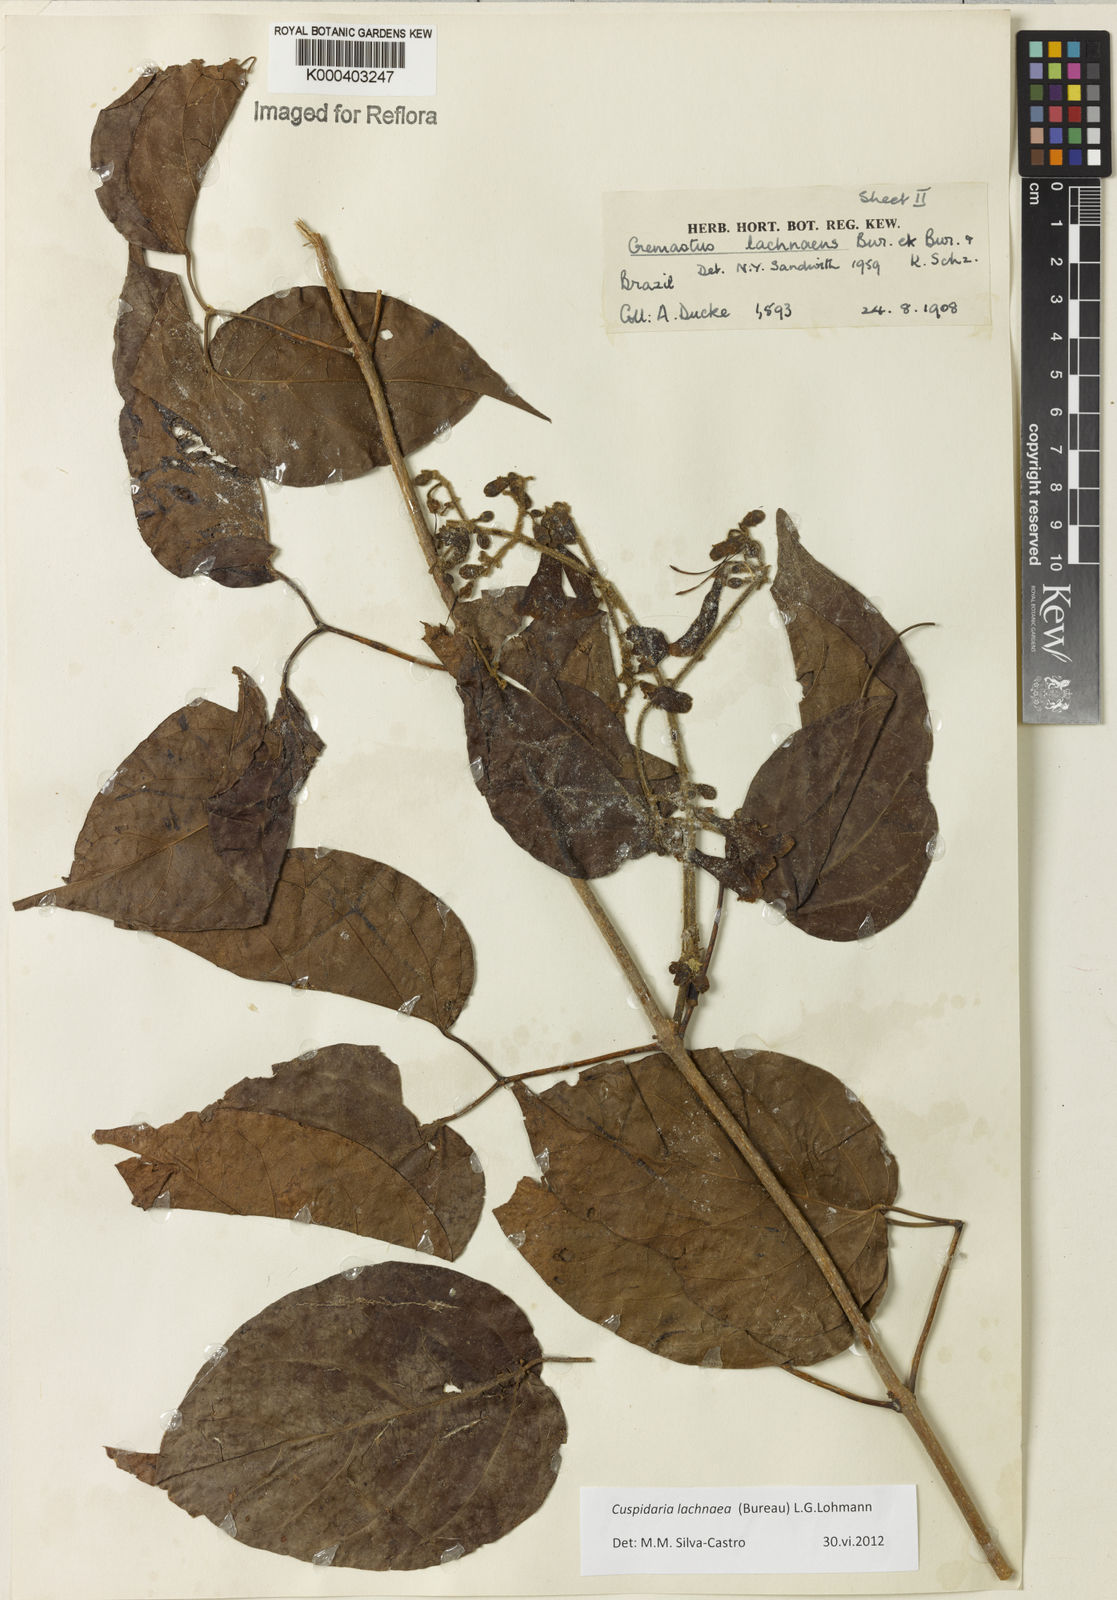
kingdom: Plantae
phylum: Tracheophyta
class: Magnoliopsida
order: Lamiales
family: Bignoniaceae
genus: Cuspidaria
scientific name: Cuspidaria lachnaea
